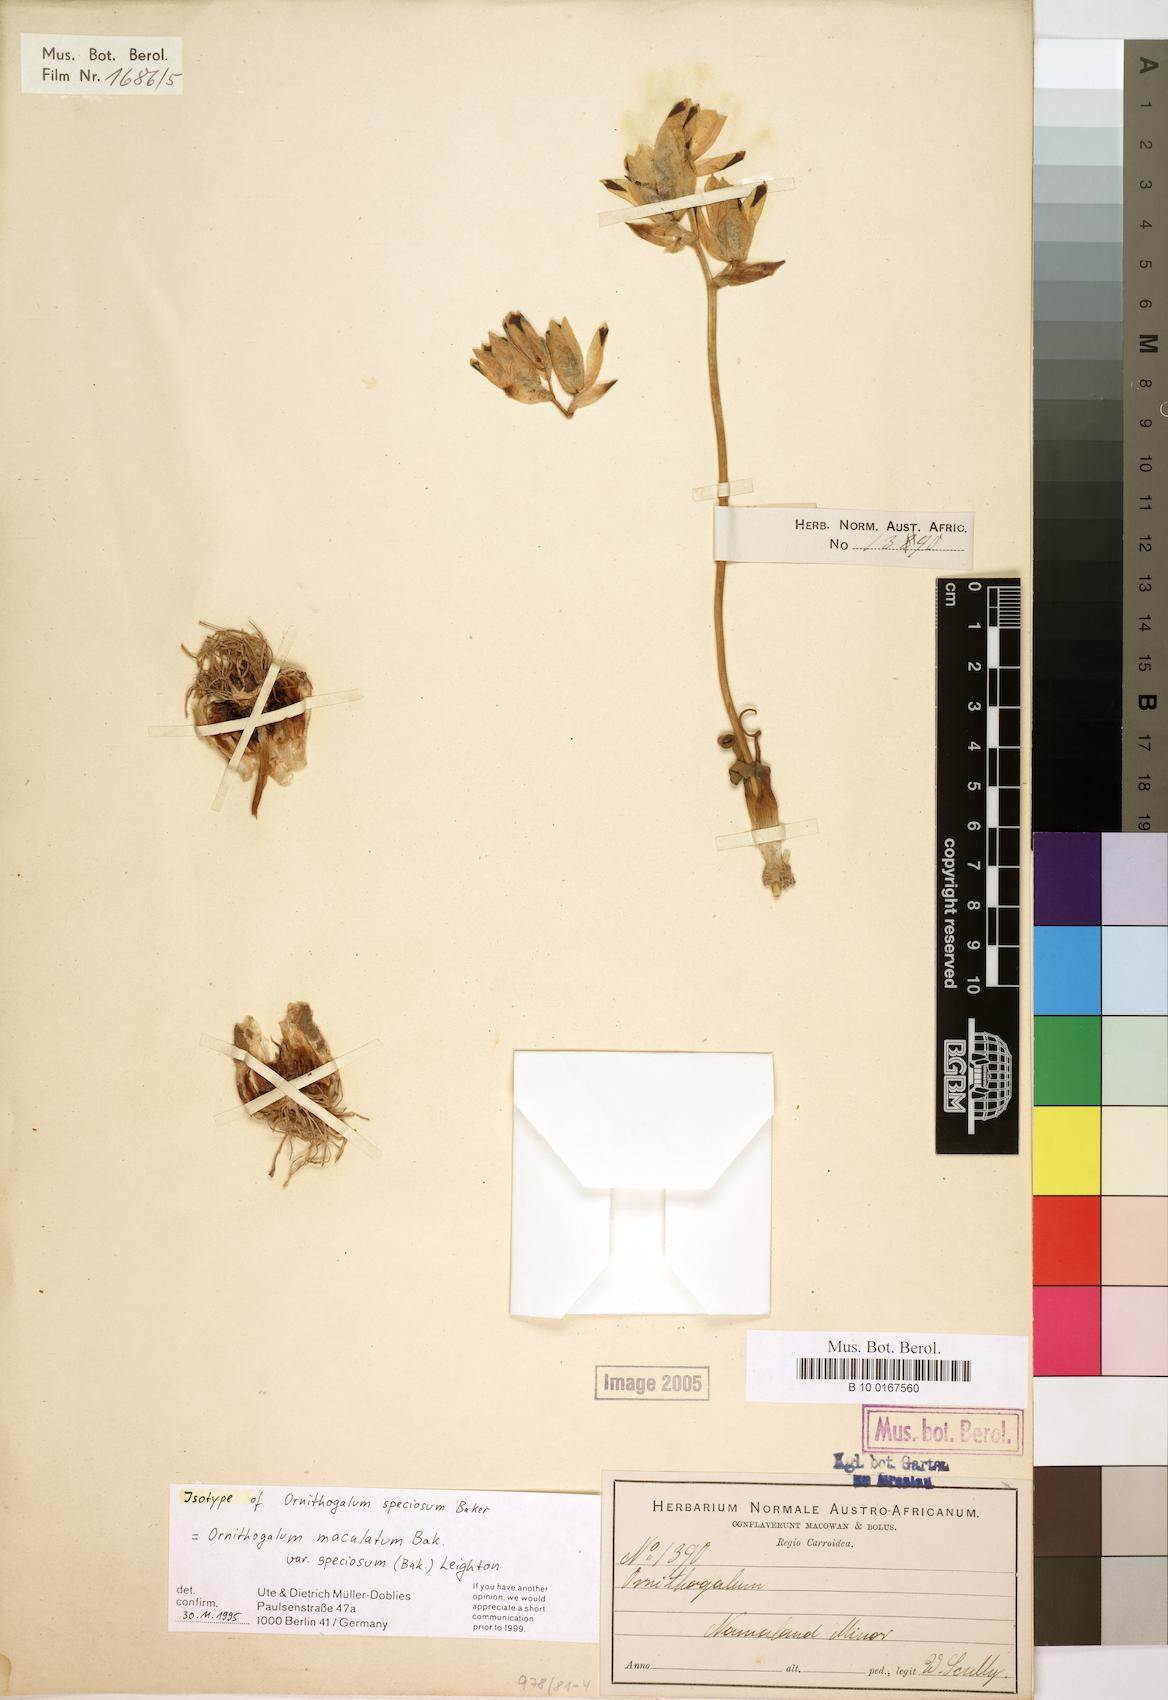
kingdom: Plantae
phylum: Tracheophyta
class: Liliopsida
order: Asparagales
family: Asparagaceae
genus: Ornithogalum
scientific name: Ornithogalum maculatum
